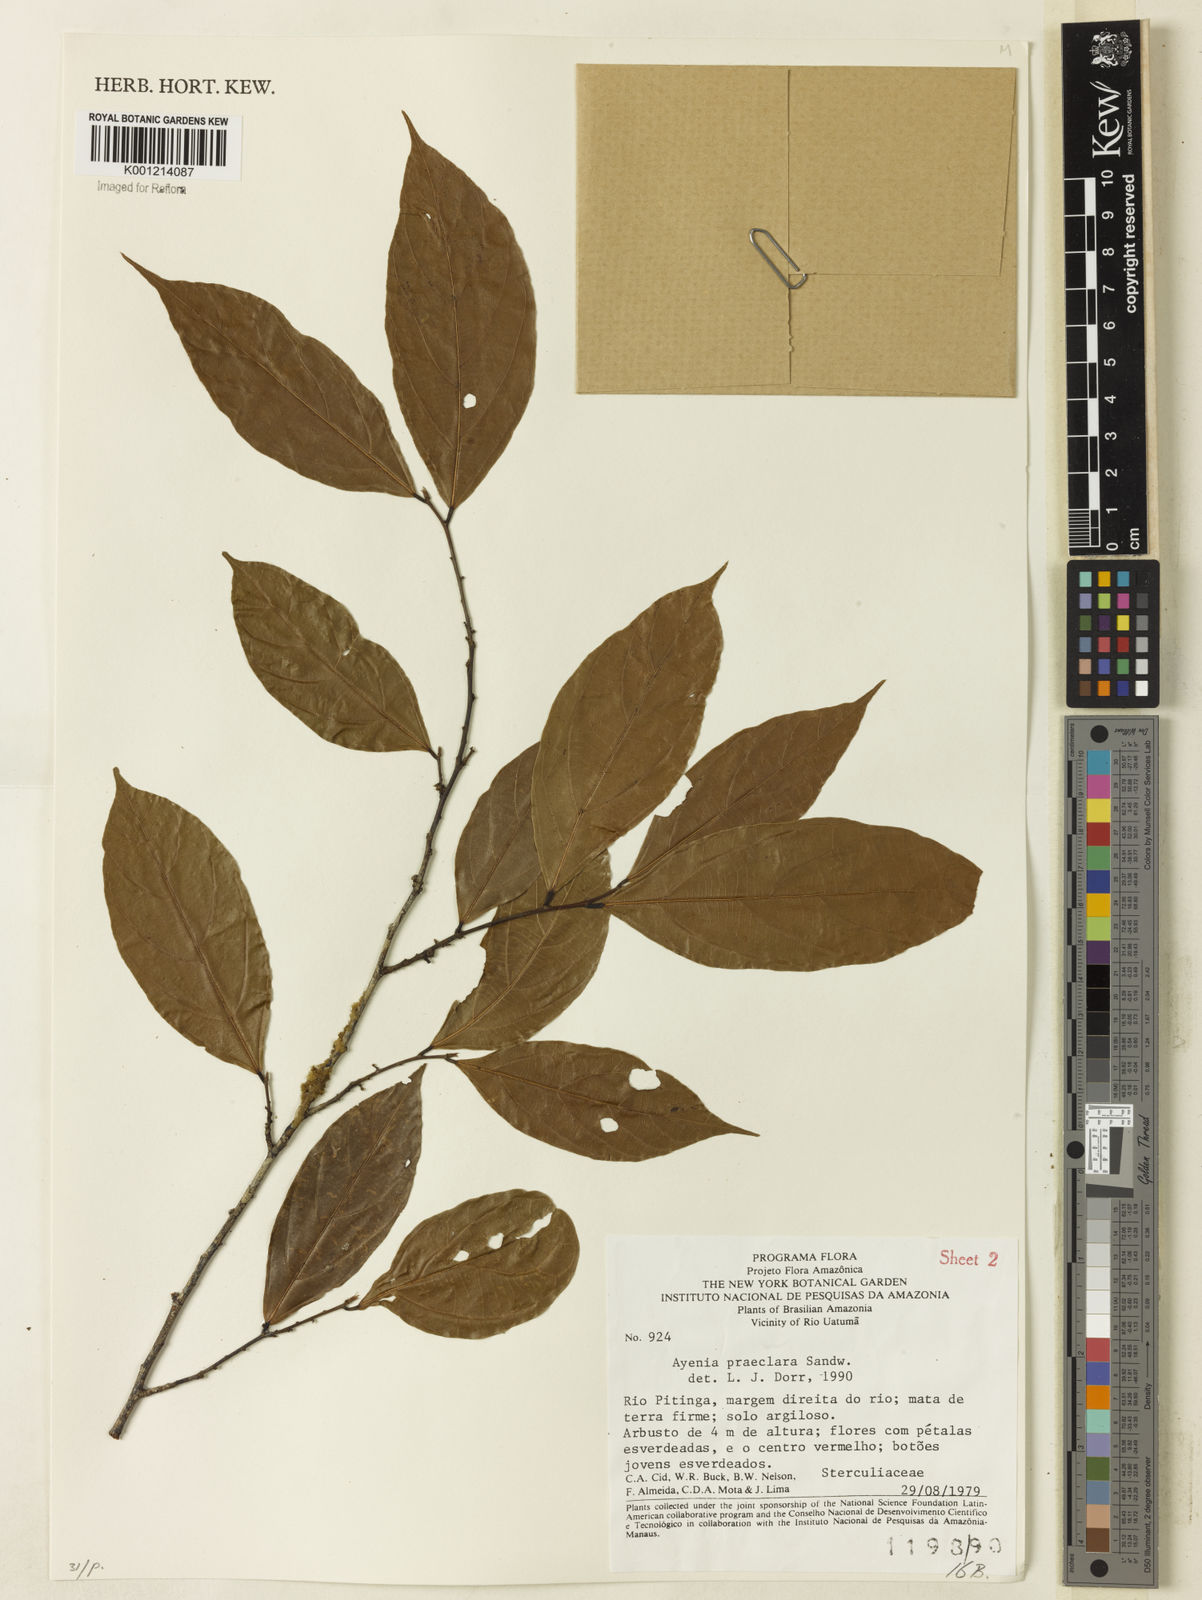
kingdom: Plantae
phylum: Tracheophyta
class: Magnoliopsida
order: Malvales
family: Malvaceae
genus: Ayenia
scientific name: Ayenia praeclara
